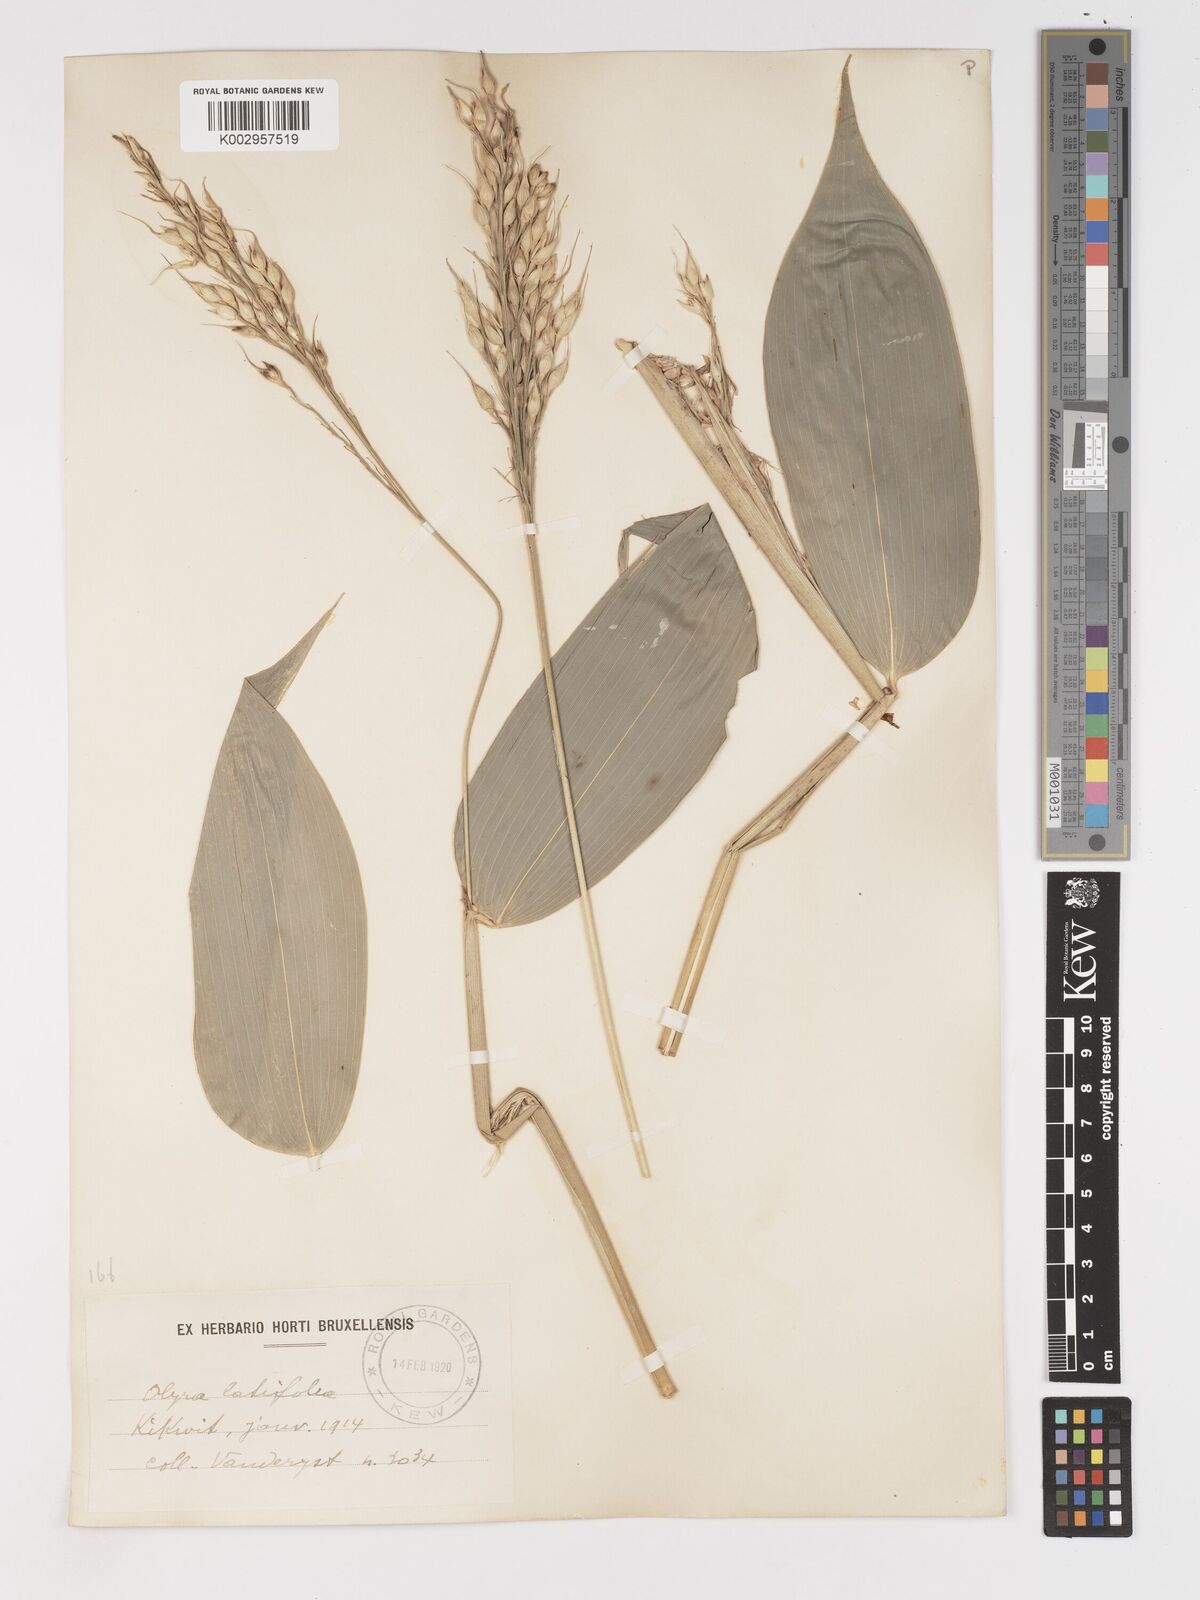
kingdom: Plantae
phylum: Tracheophyta
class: Liliopsida
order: Poales
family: Poaceae
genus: Olyra
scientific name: Olyra latifolia
